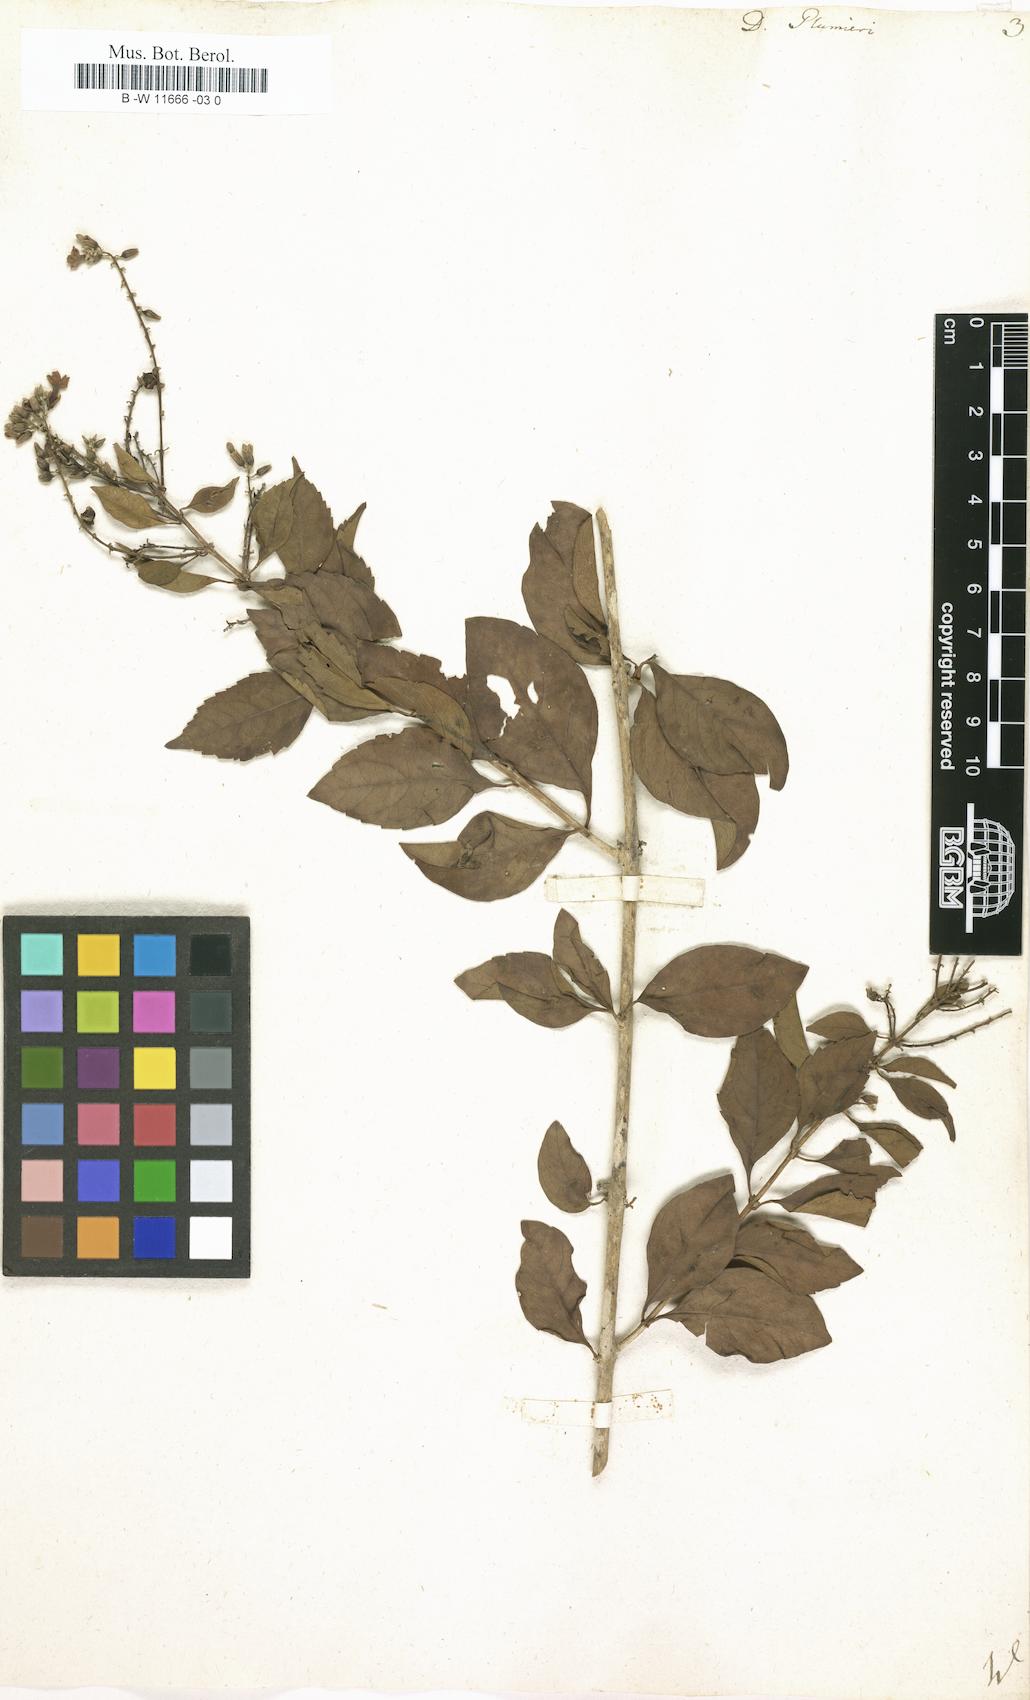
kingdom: Plantae
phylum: Tracheophyta
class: Magnoliopsida
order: Lamiales
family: Verbenaceae
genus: Duranta
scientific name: Duranta erecta
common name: Golden dewdrops
